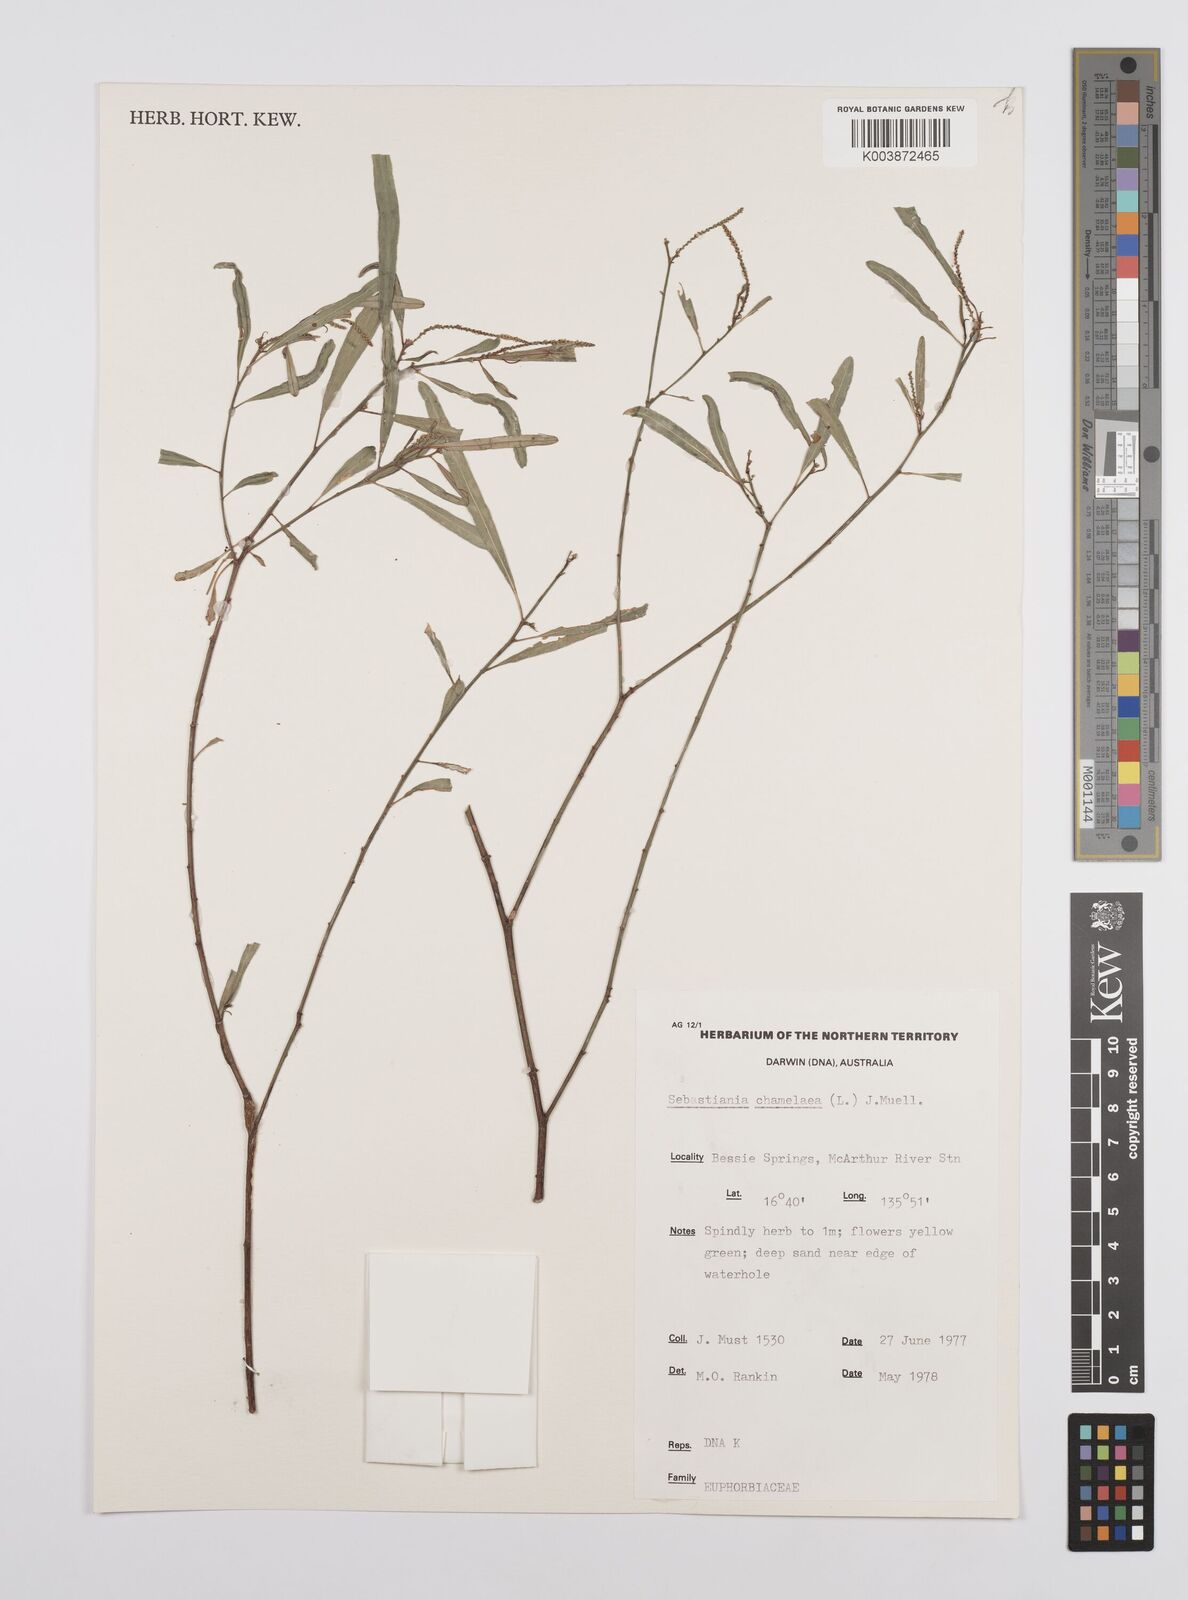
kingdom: Plantae
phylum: Tracheophyta
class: Magnoliopsida
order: Malpighiales
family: Euphorbiaceae
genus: Microstachys
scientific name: Microstachys chamaelea
